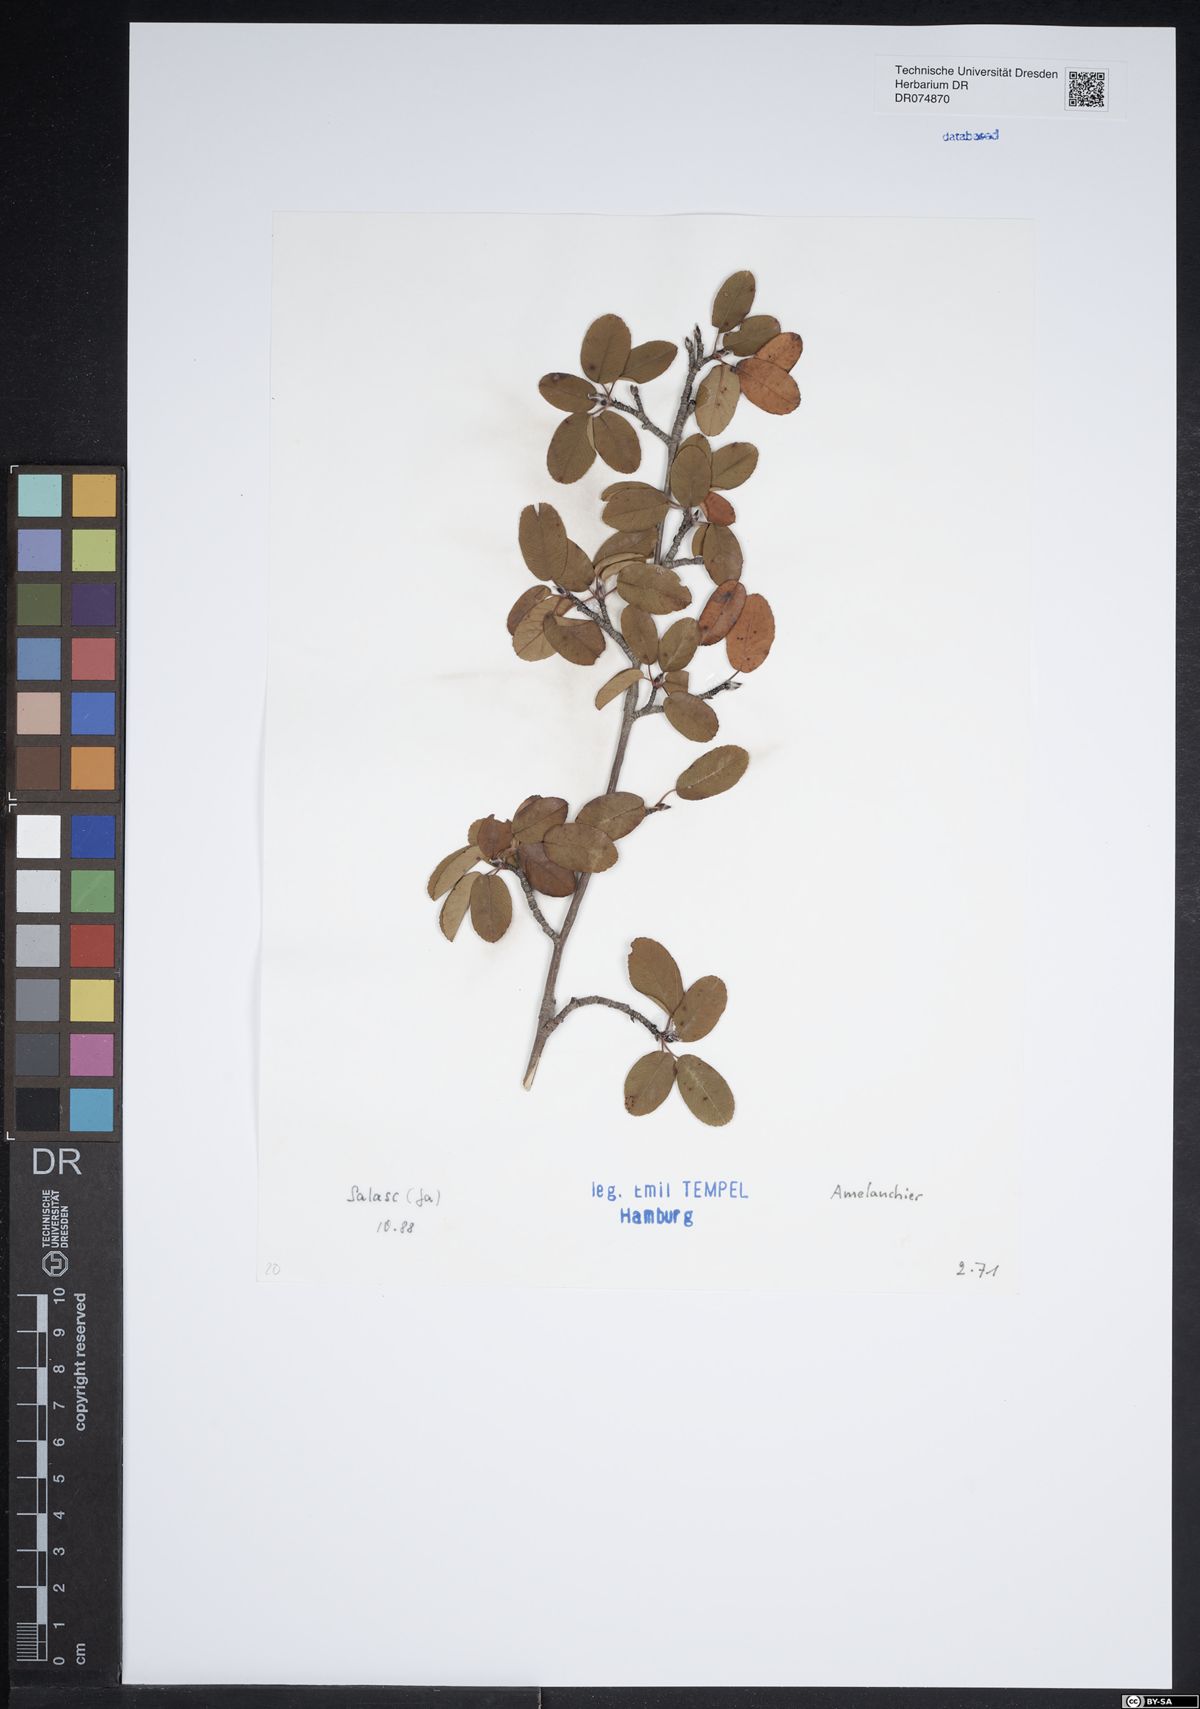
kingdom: Plantae
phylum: Tracheophyta
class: Magnoliopsida
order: Rosales
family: Rosaceae
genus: Amelanchier
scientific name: Amelanchier
